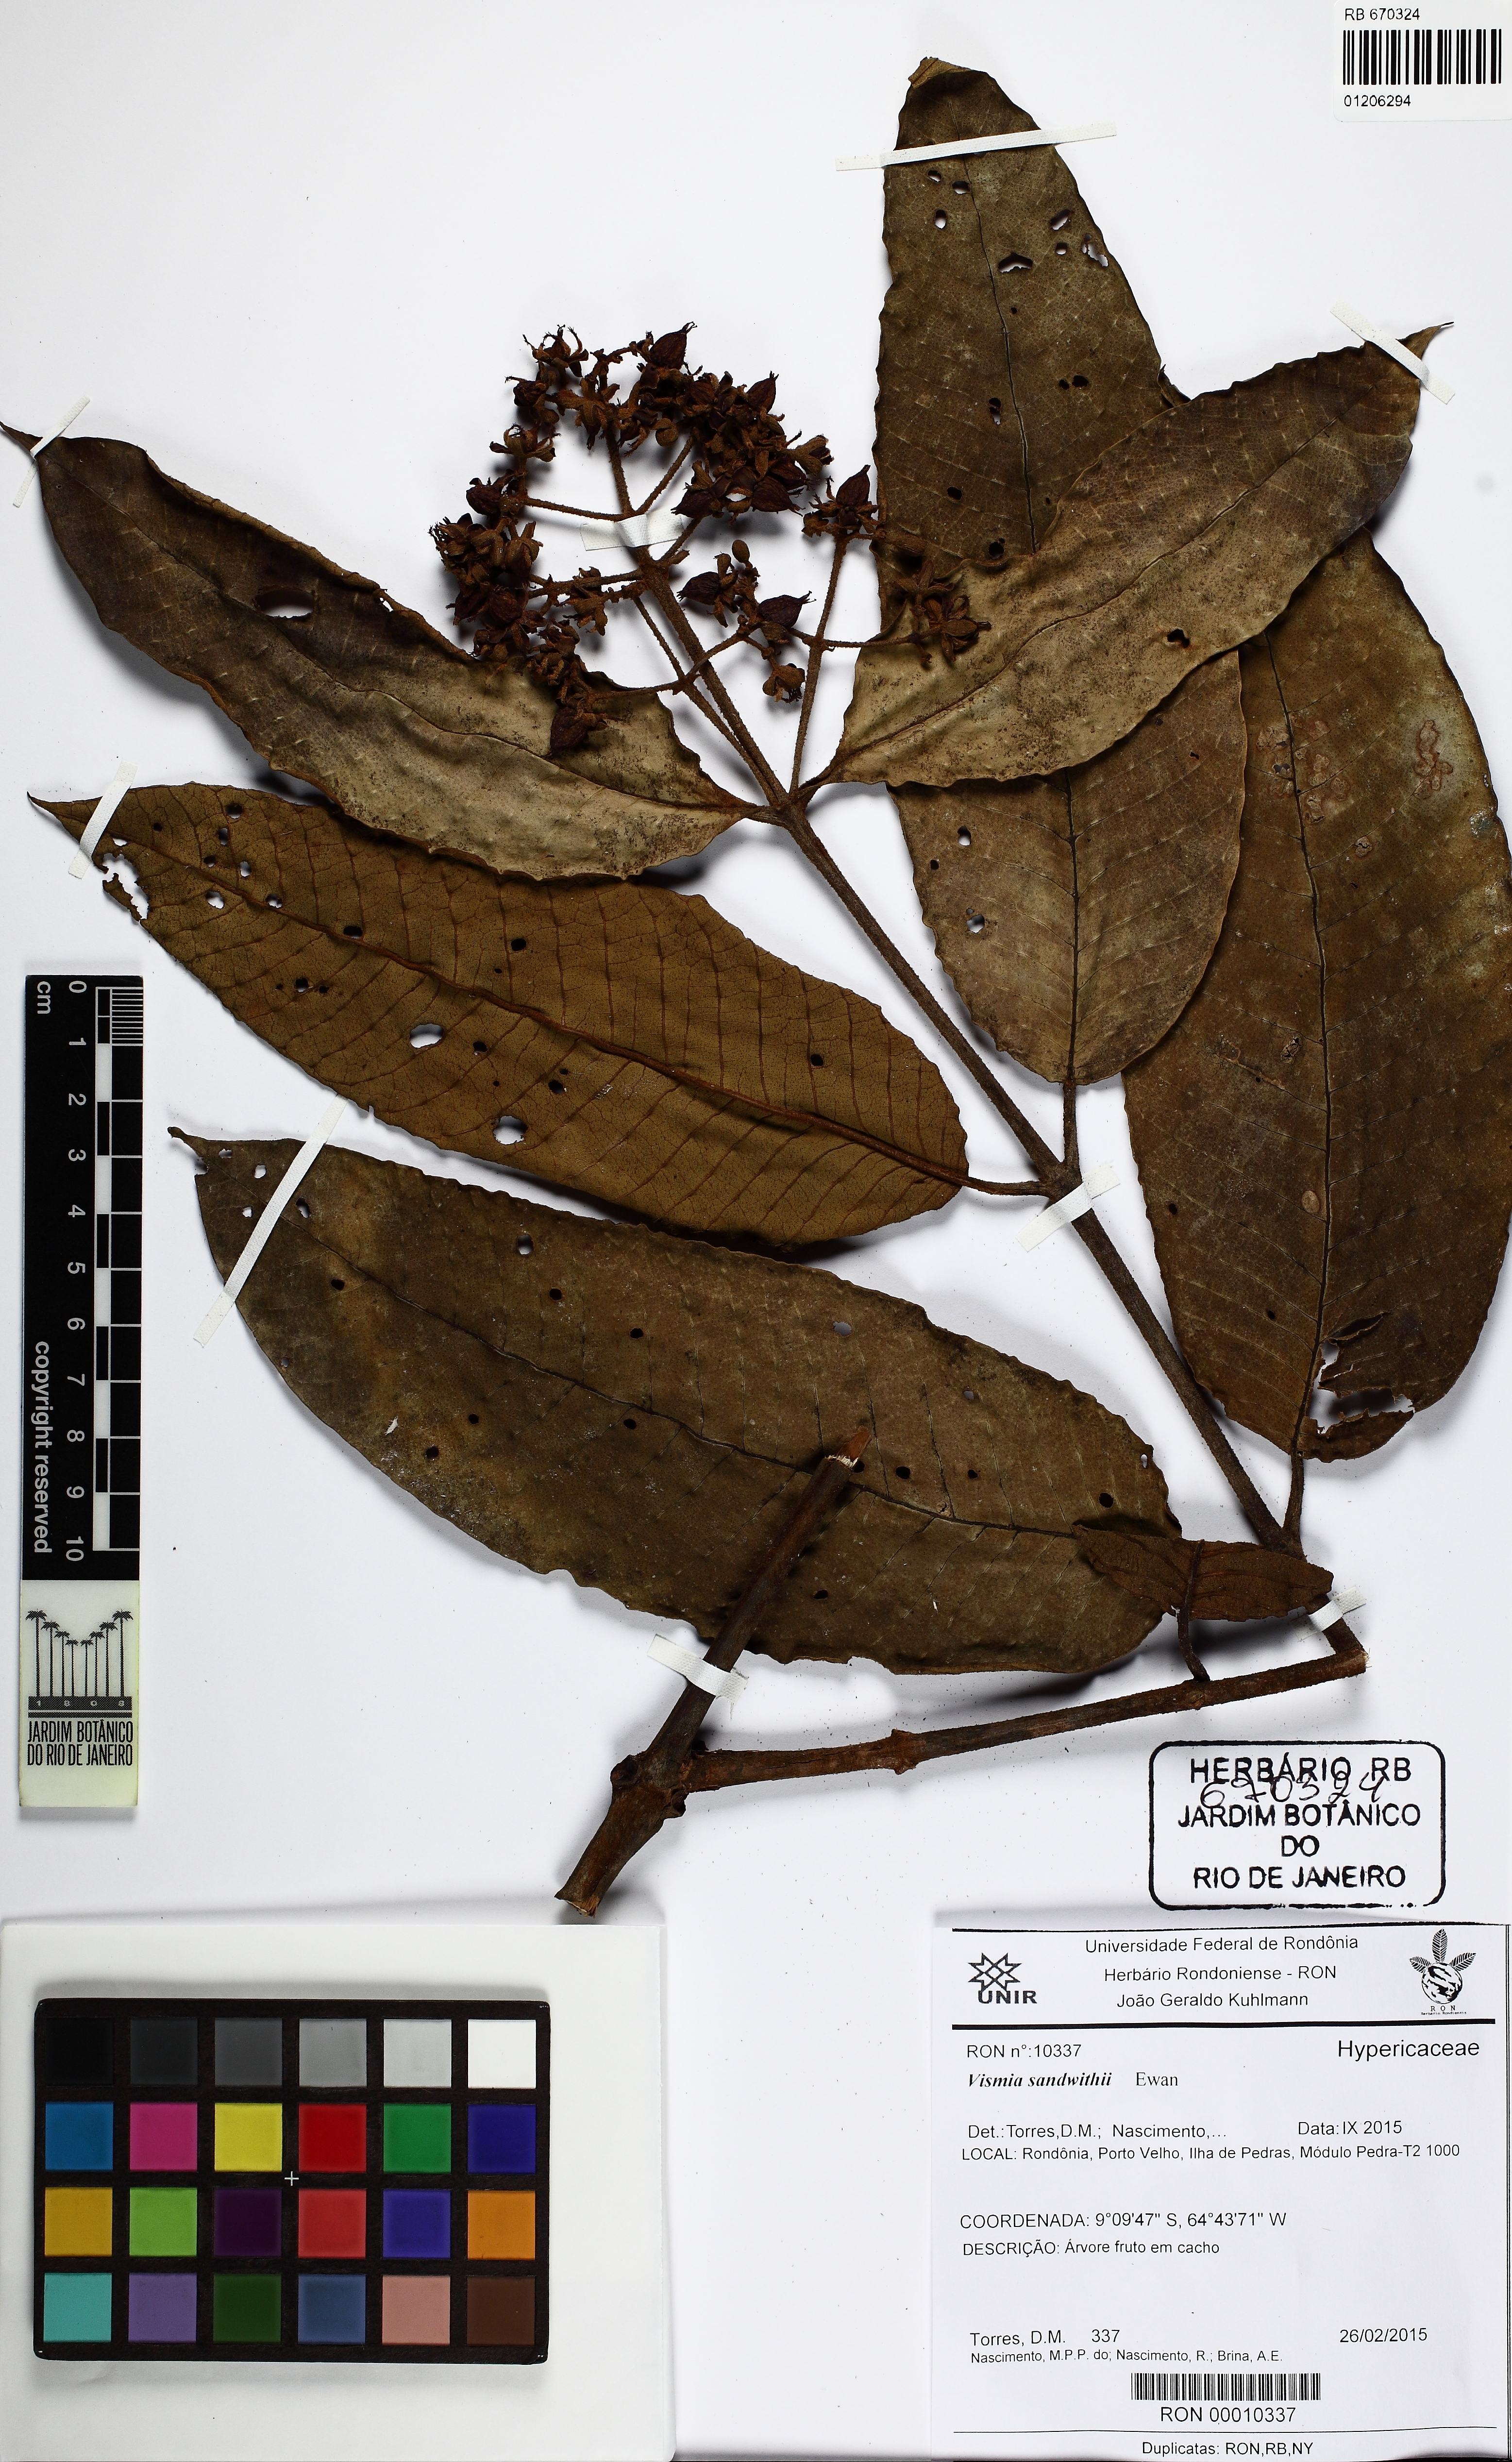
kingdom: Plantae
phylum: Tracheophyta
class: Magnoliopsida
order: Malpighiales
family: Hypericaceae
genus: Vismia
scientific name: Vismia sandwithii
